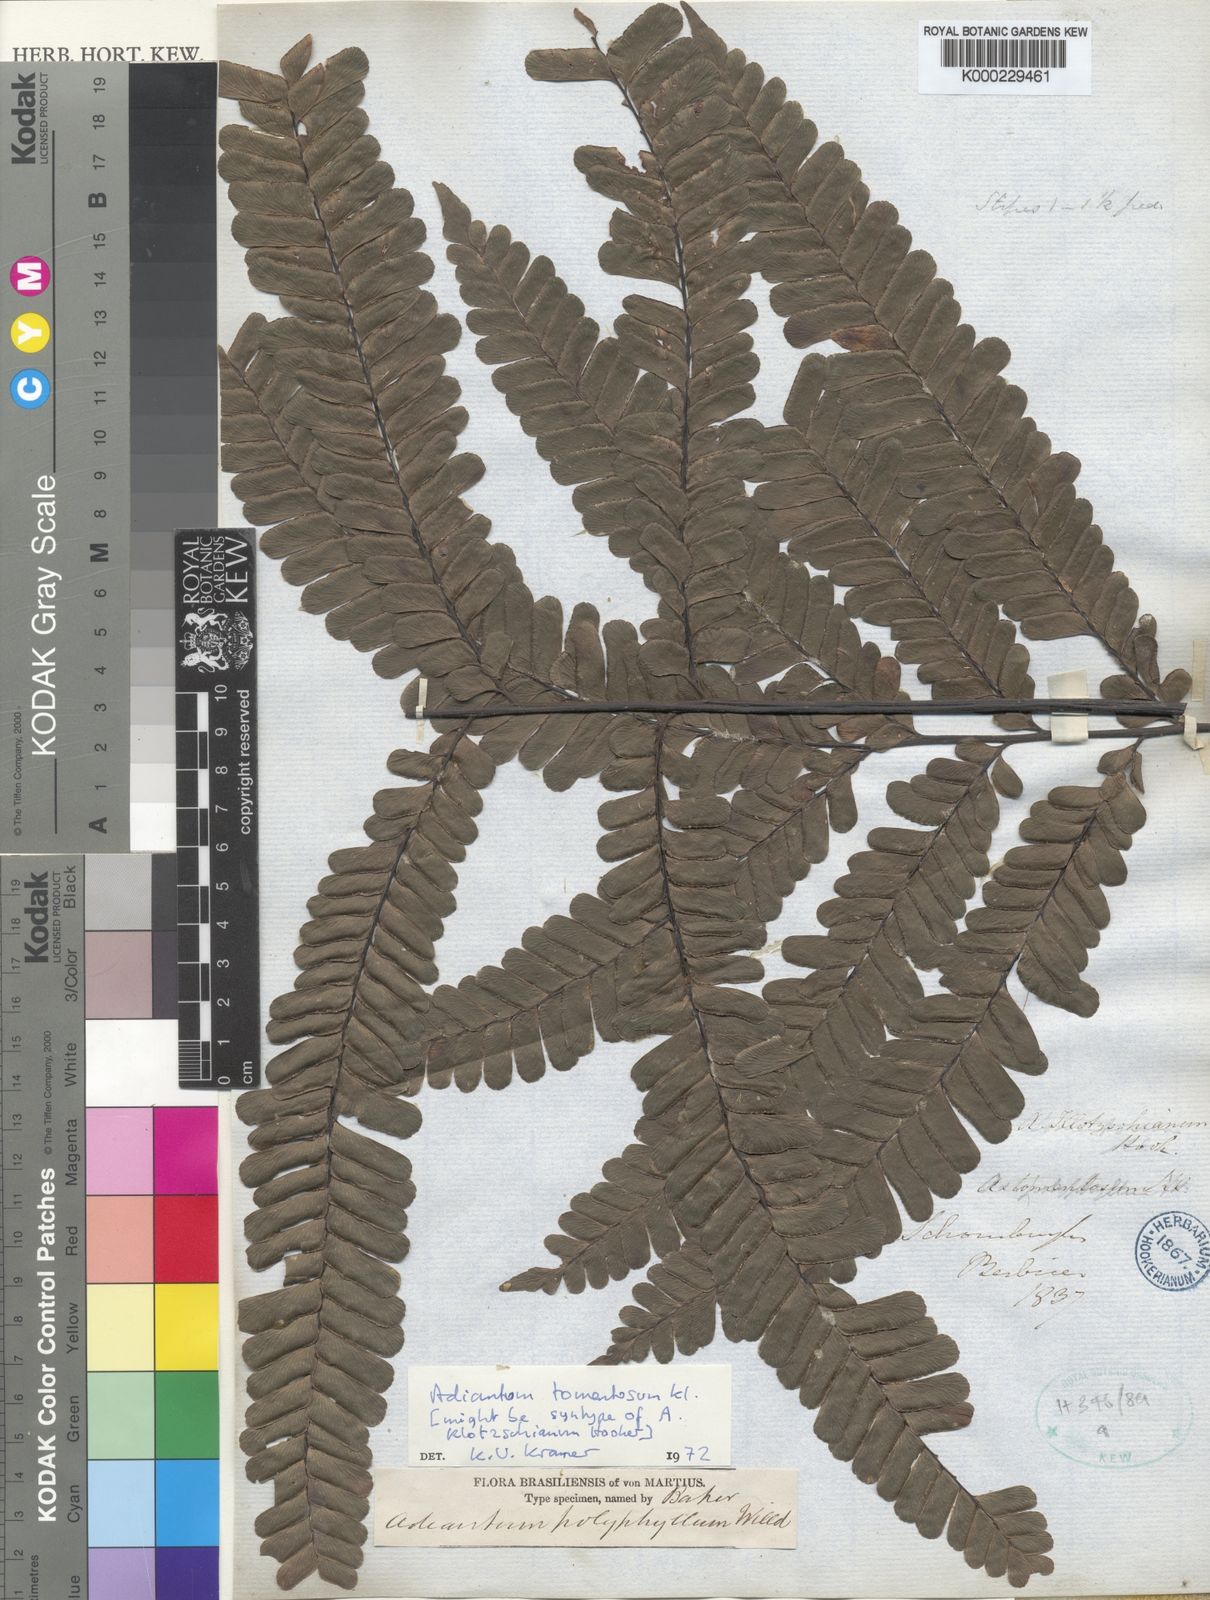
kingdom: Plantae
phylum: Tracheophyta
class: Polypodiopsida
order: Polypodiales
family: Pteridaceae
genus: Adiantum
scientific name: Adiantum tomentosum
